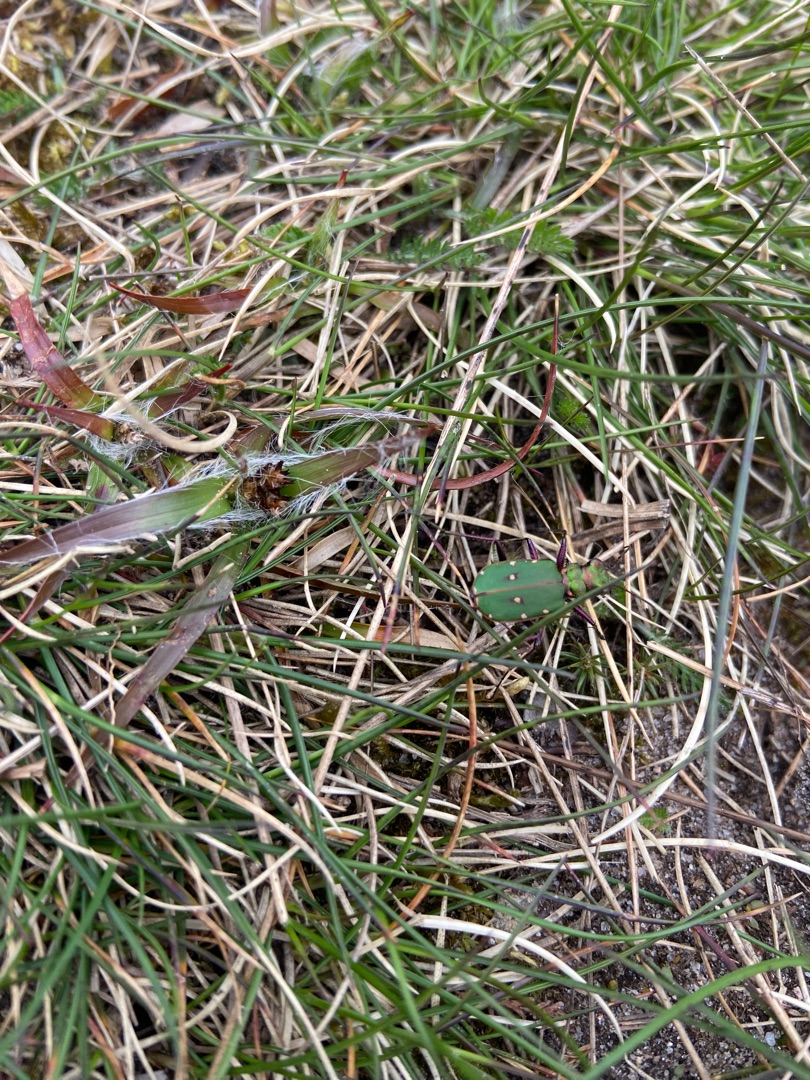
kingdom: Animalia
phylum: Arthropoda
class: Insecta
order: Coleoptera
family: Carabidae
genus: Cicindela
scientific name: Cicindela campestris
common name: Grøn sandspringer
